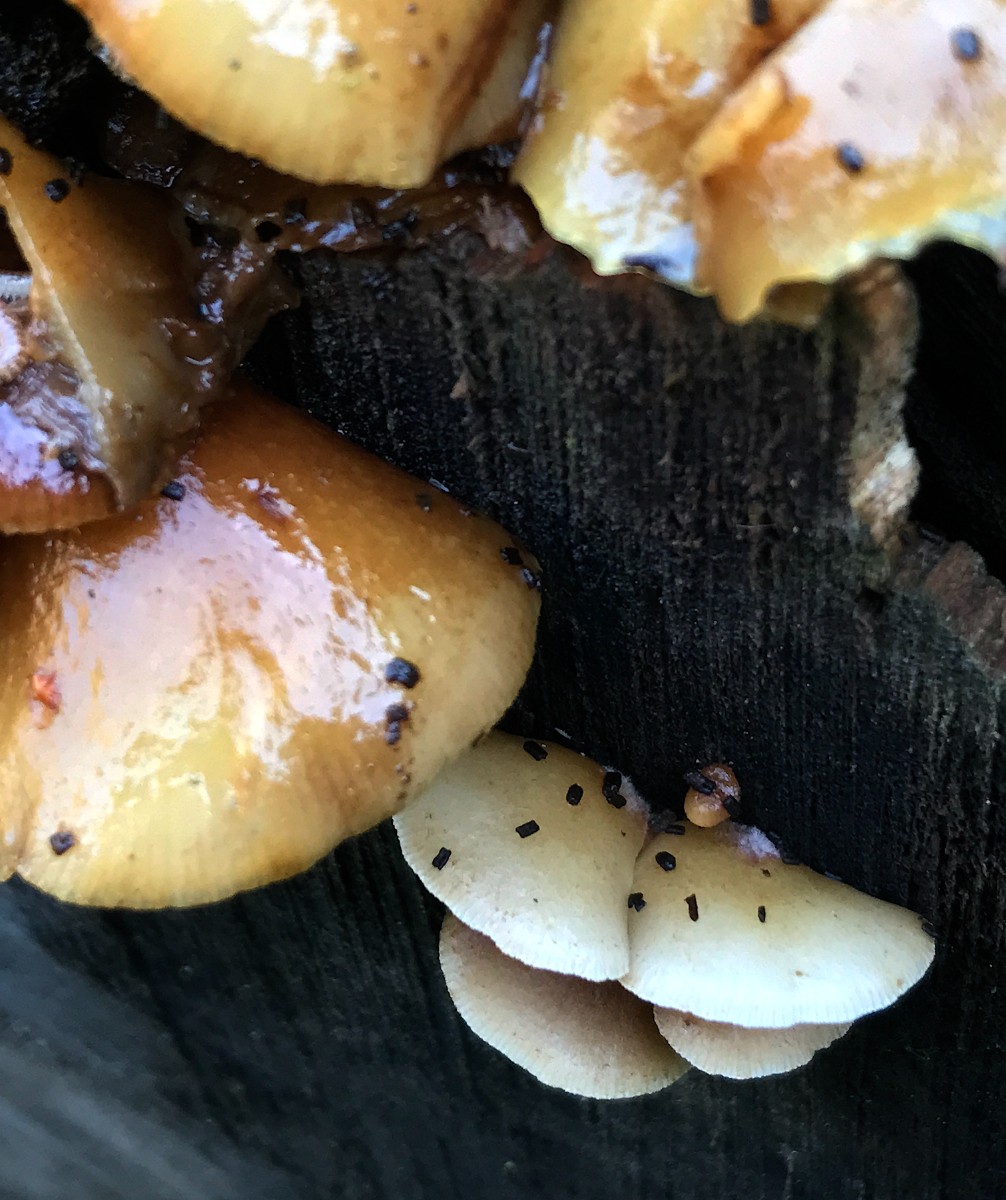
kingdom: Fungi
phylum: Basidiomycota
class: Agaricomycetes
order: Agaricales
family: Crepidotaceae
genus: Crepidotus
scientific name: Crepidotus mollis
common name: blød muslingesvamp
